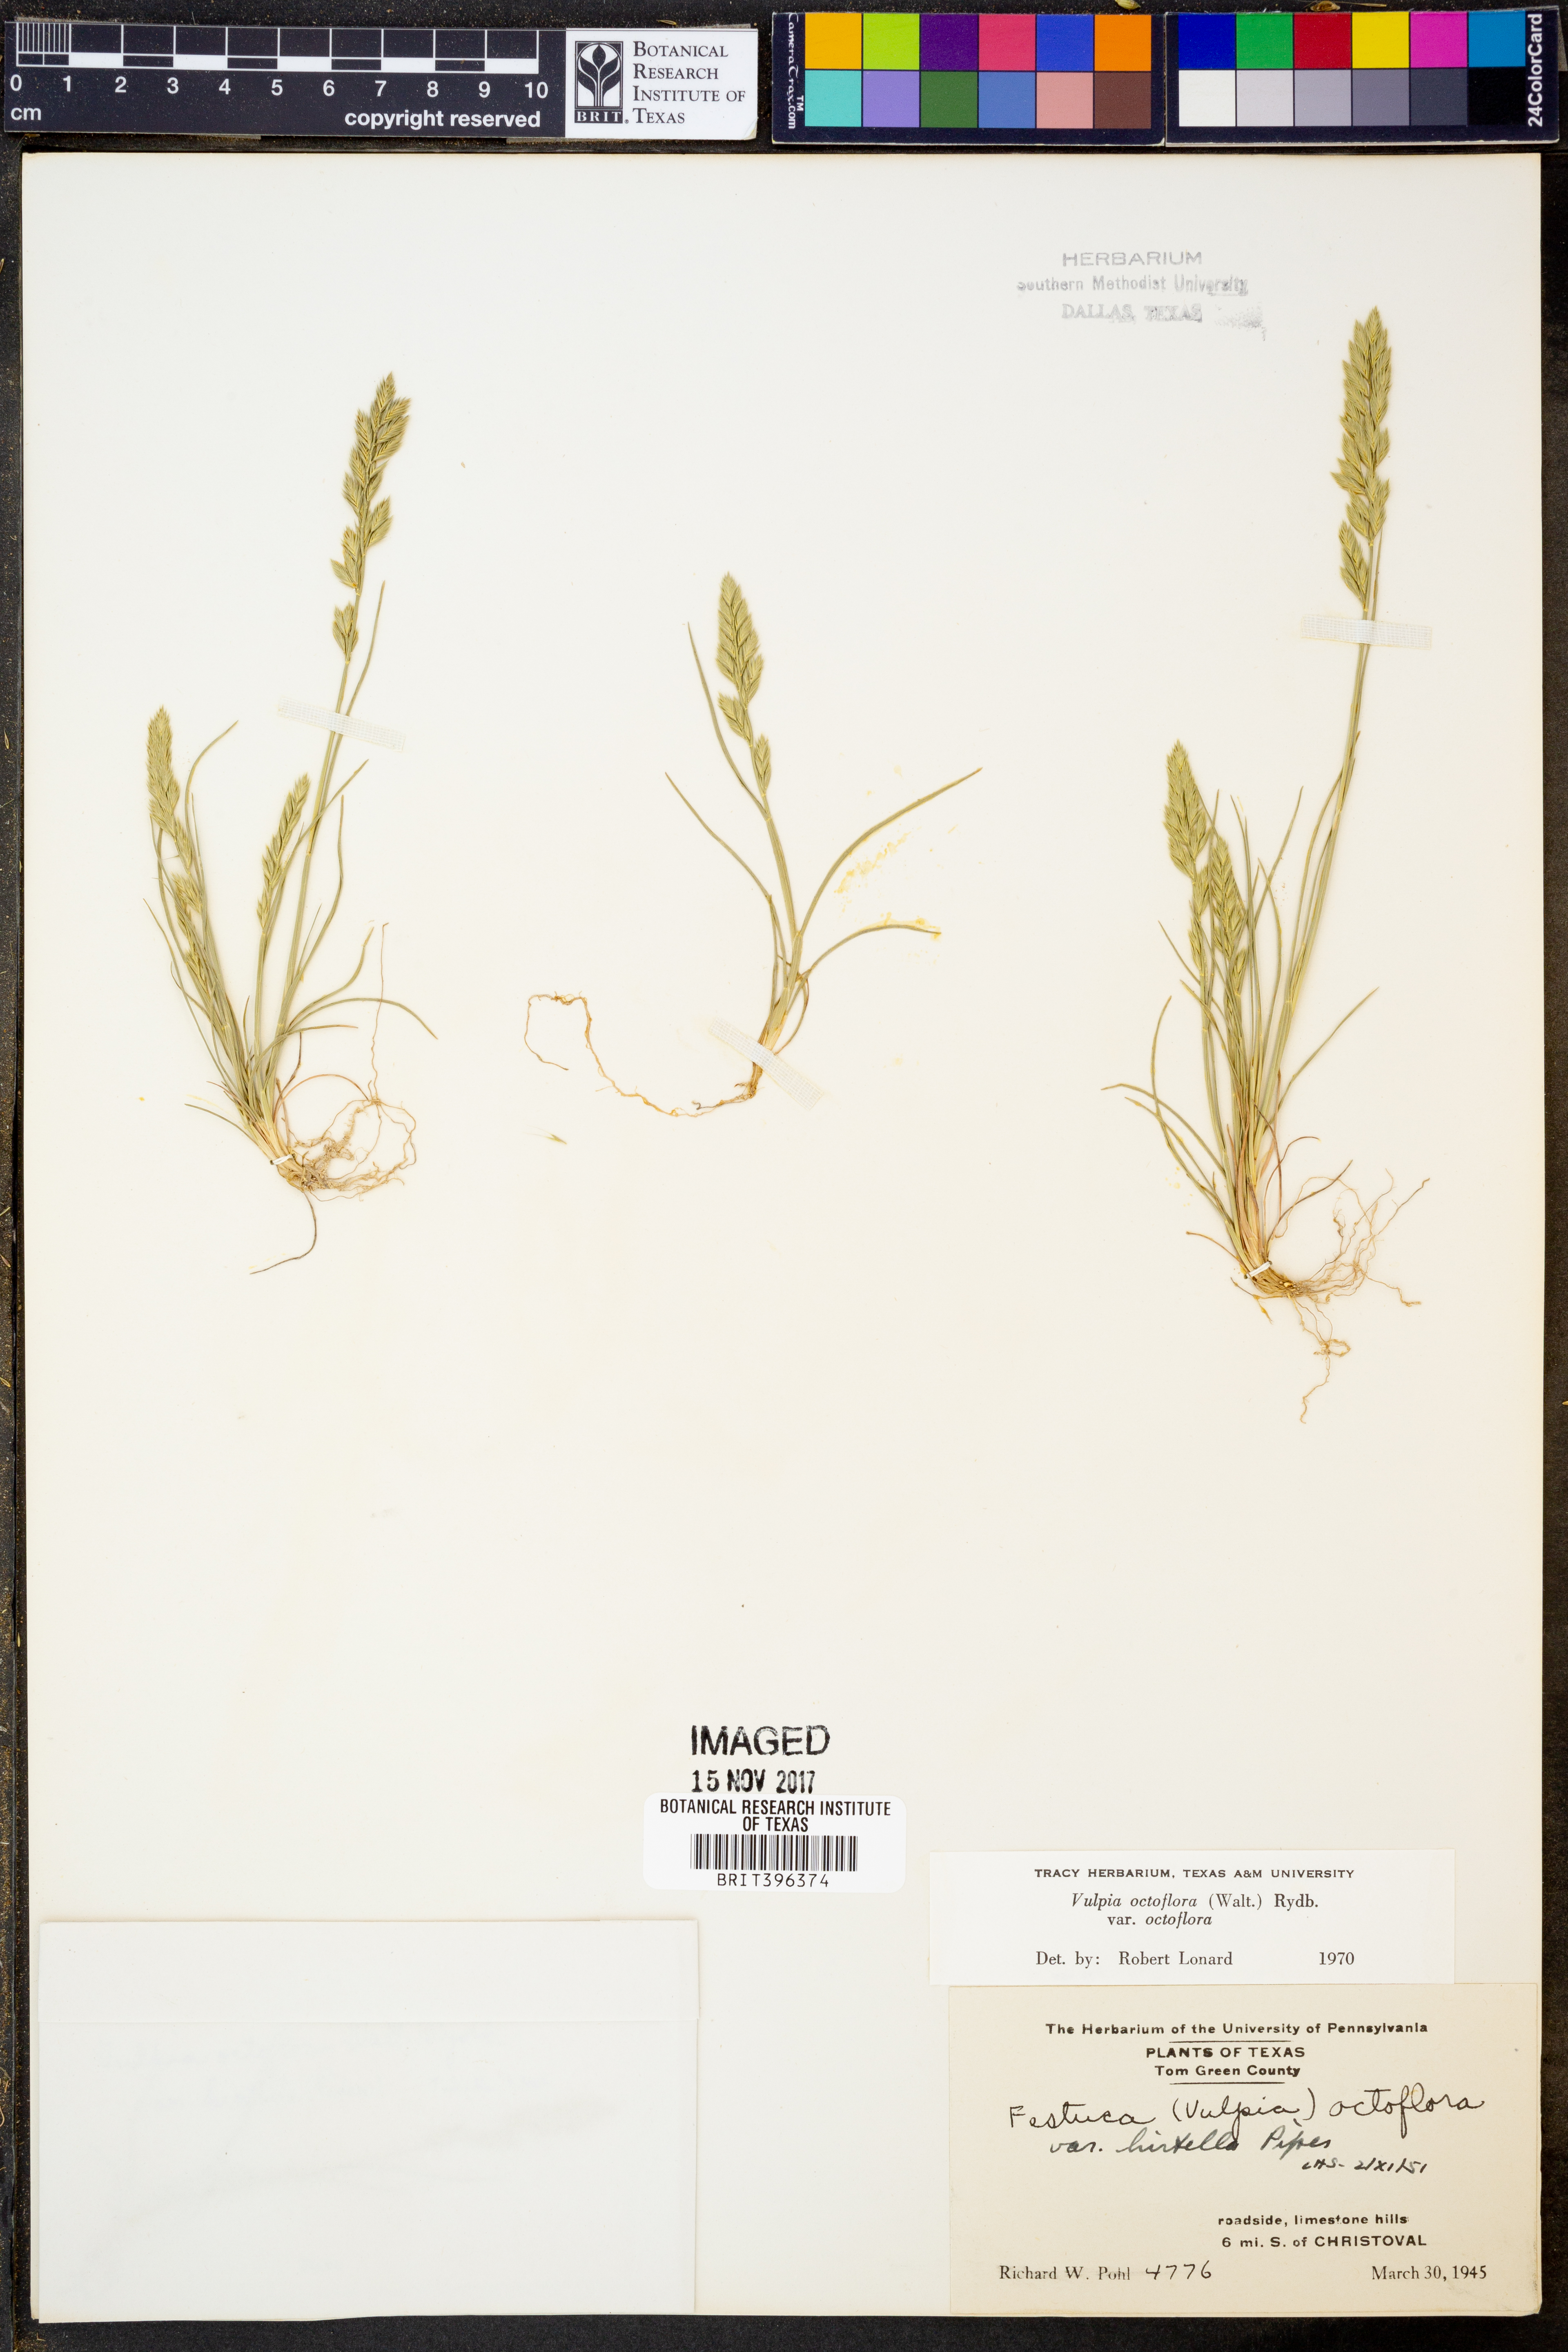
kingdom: Plantae
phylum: Tracheophyta
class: Liliopsida
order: Poales
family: Poaceae
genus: Festuca
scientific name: Festuca octoflora
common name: Sixweeks grass
